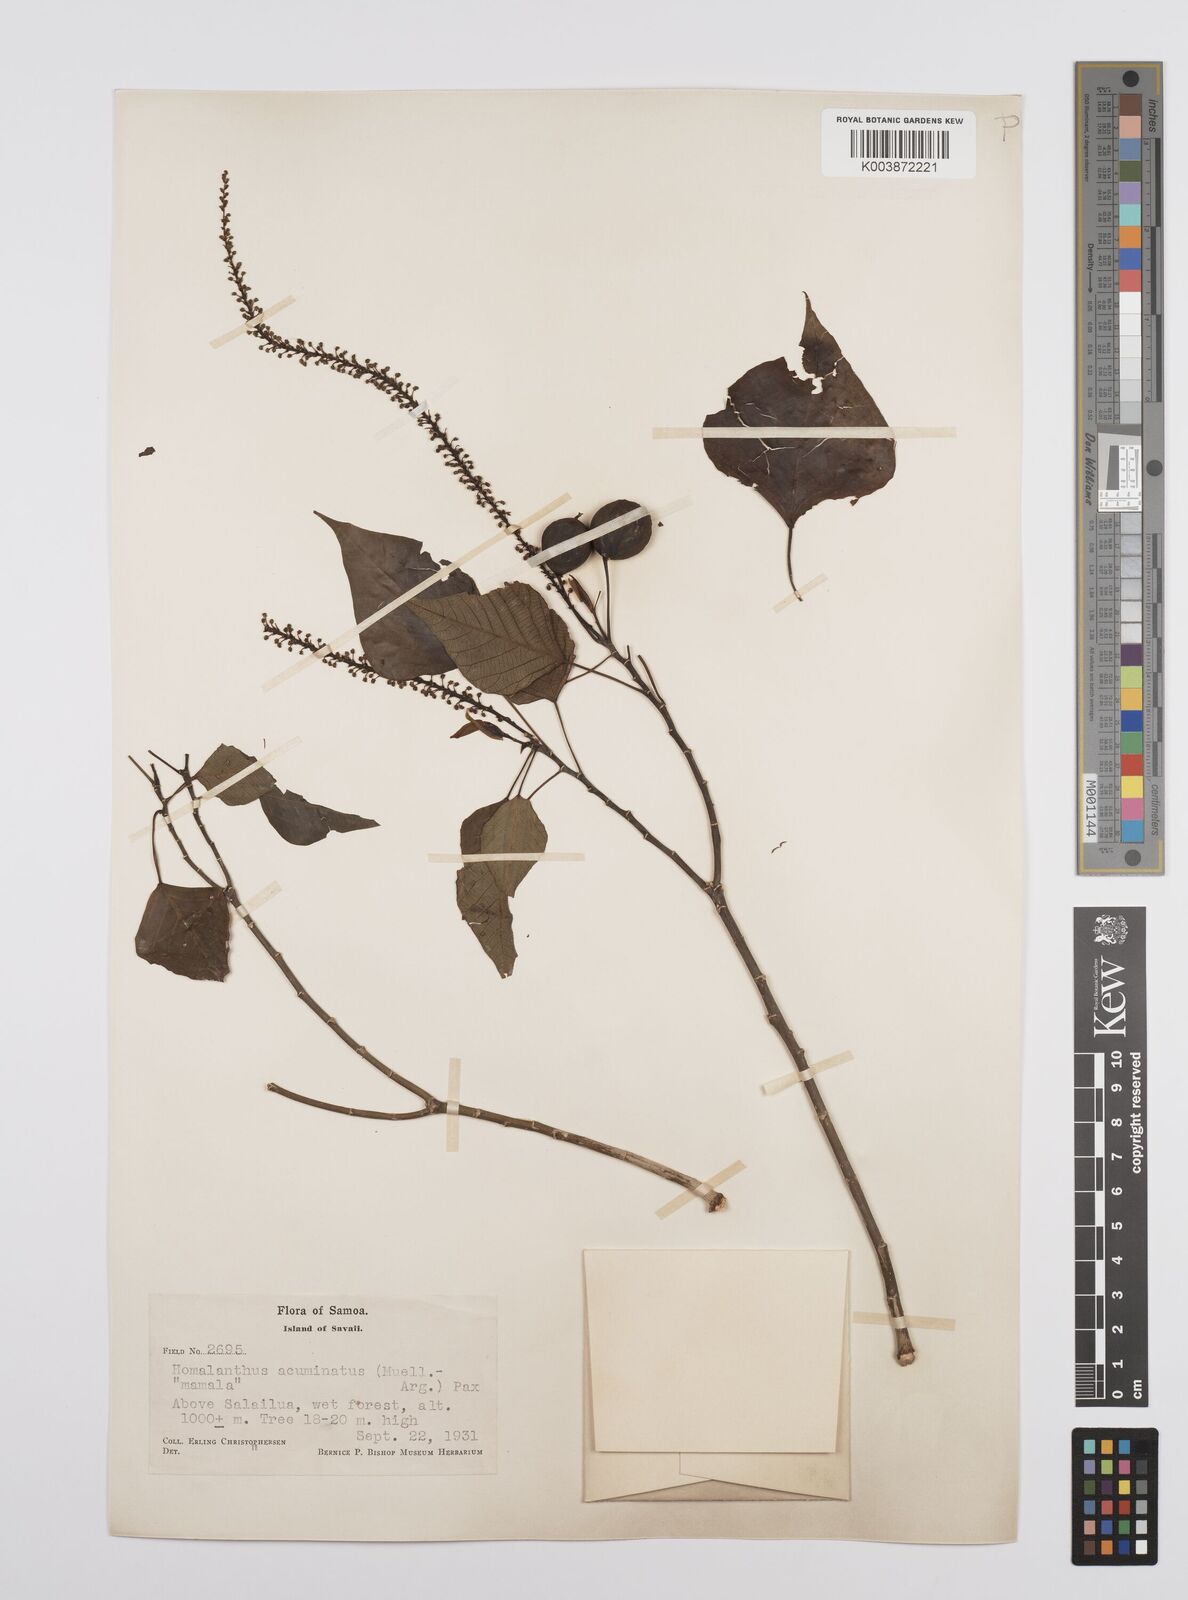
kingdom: Plantae
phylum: Tracheophyta
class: Magnoliopsida
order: Malpighiales
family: Euphorbiaceae
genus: Homalanthus
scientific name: Homalanthus acuminatus
